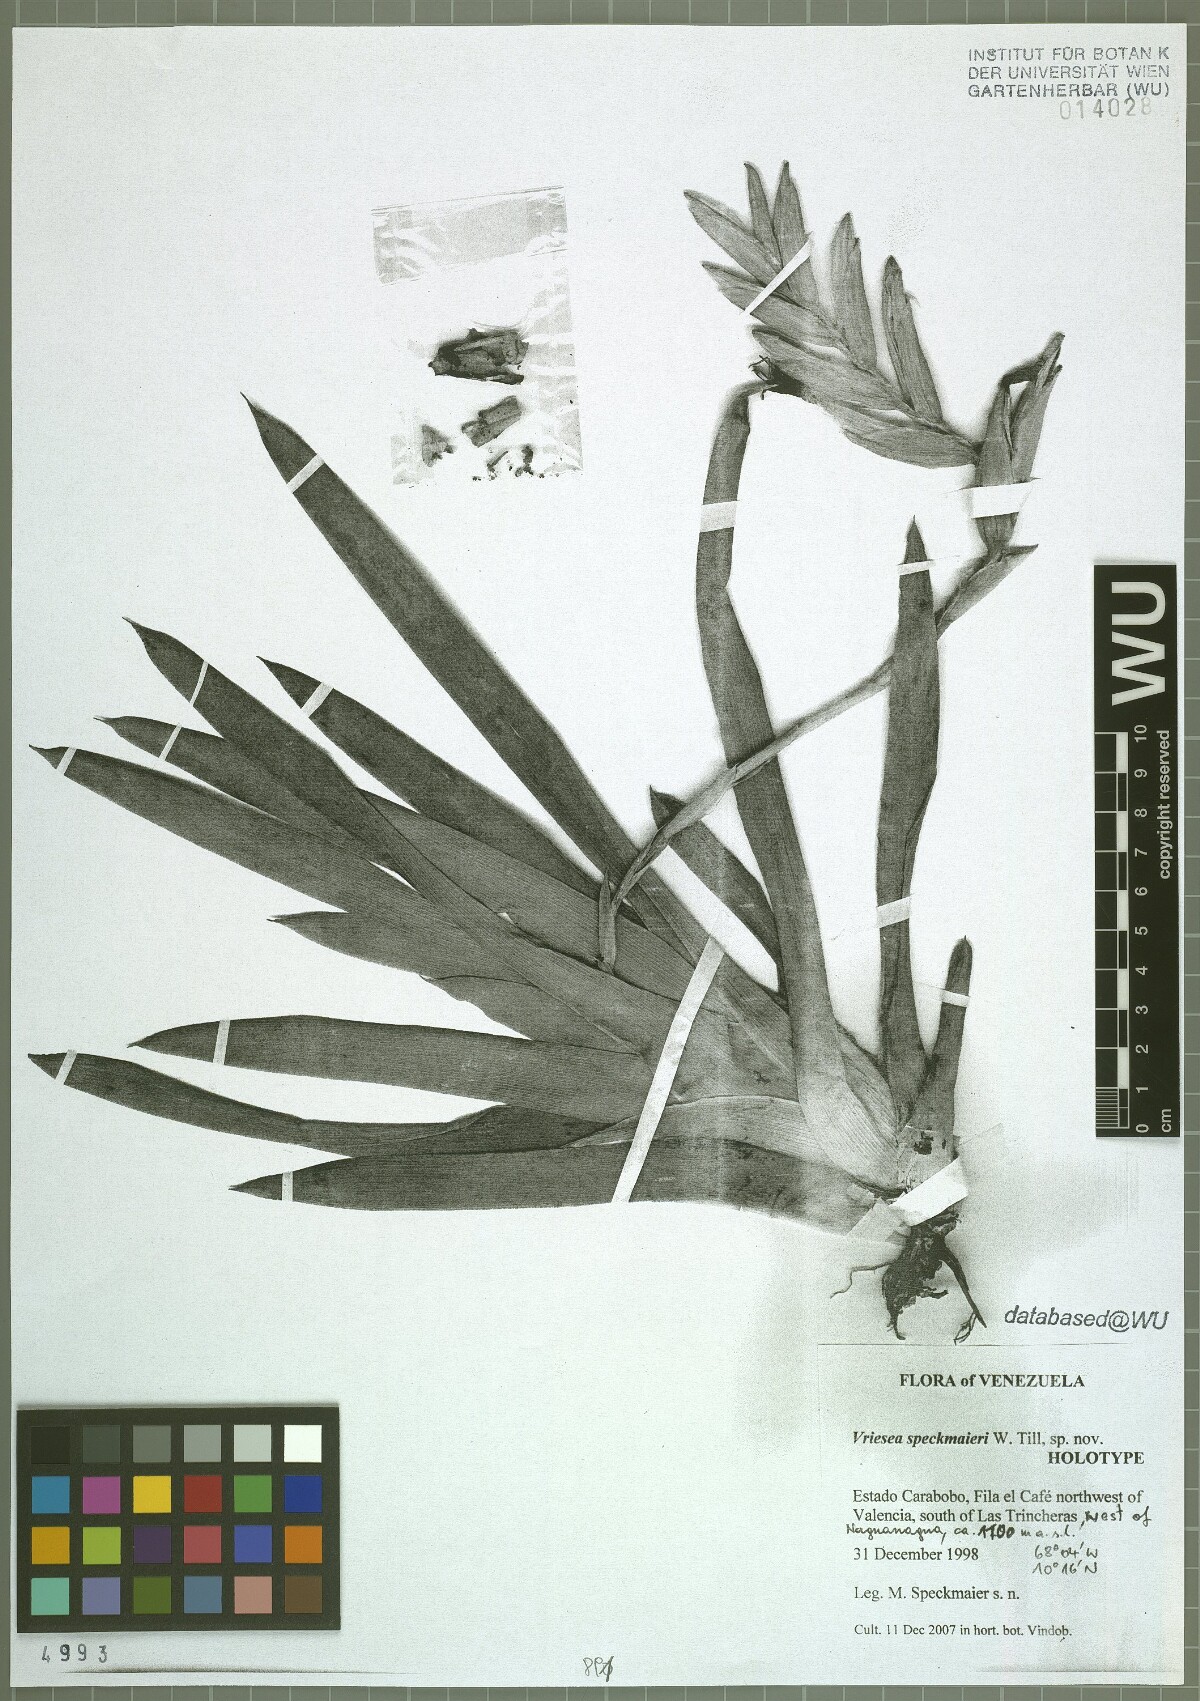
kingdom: Plantae
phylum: Tracheophyta
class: Liliopsida
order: Poales
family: Bromeliaceae
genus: Vriesea
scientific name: Vriesea speckmaieri
